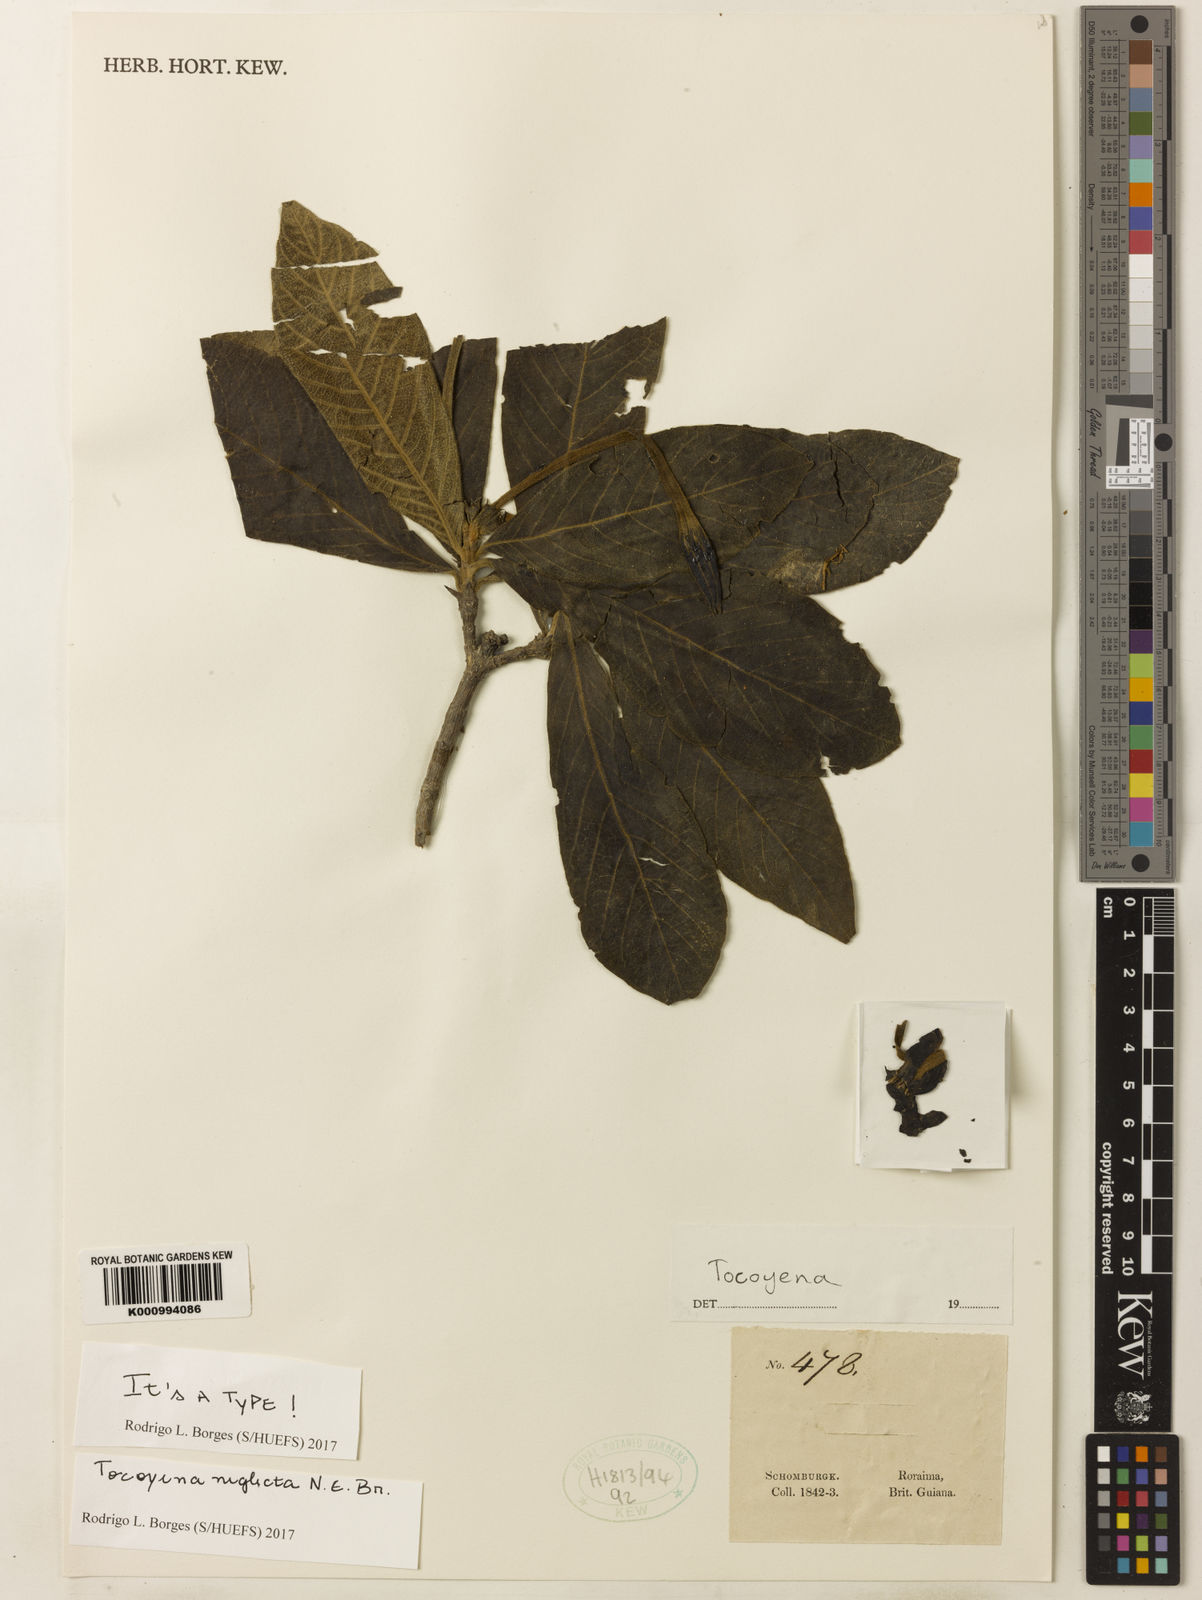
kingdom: Plantae
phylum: Tracheophyta
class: Magnoliopsida
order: Gentianales
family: Rubiaceae
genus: Tocoyena
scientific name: Tocoyena neglecta
